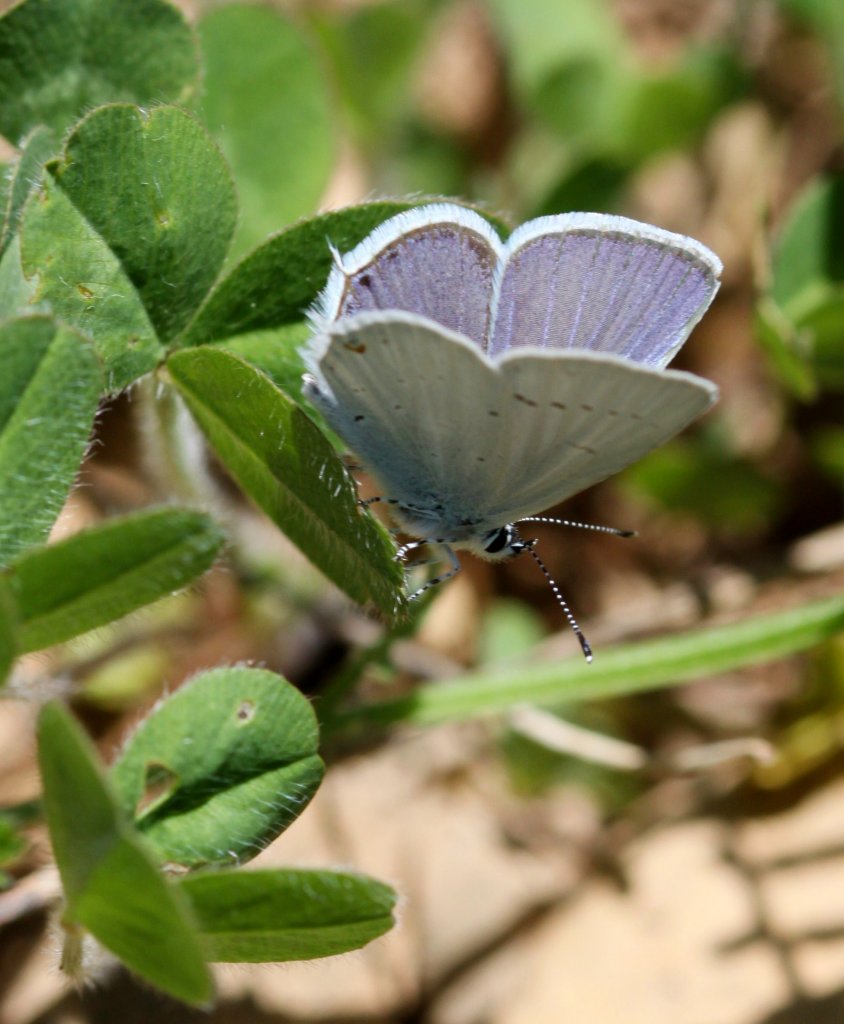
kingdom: Animalia
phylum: Arthropoda
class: Insecta
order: Lepidoptera
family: Lycaenidae
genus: Elkalyce
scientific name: Elkalyce amyntula
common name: Western Tailed-Blue
